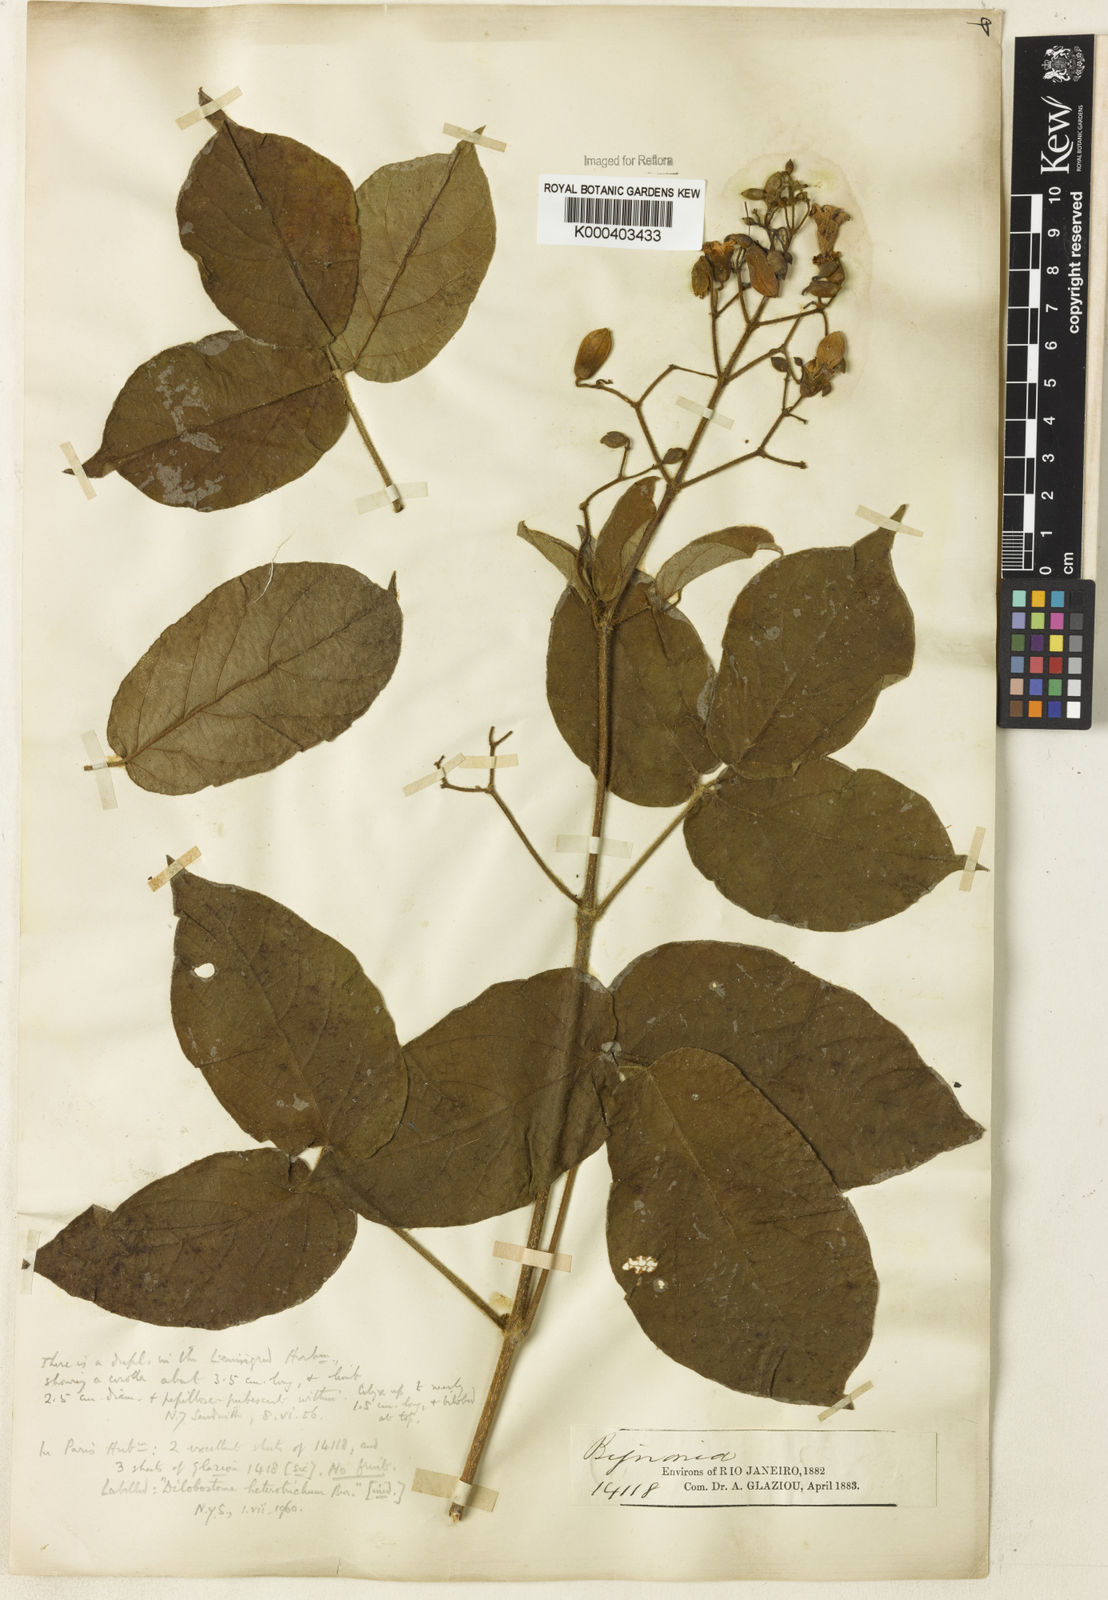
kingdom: Plantae
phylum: Tracheophyta
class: Magnoliopsida
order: Rosales
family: Rhamnaceae
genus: Arrabidaea
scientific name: Arrabidaea
